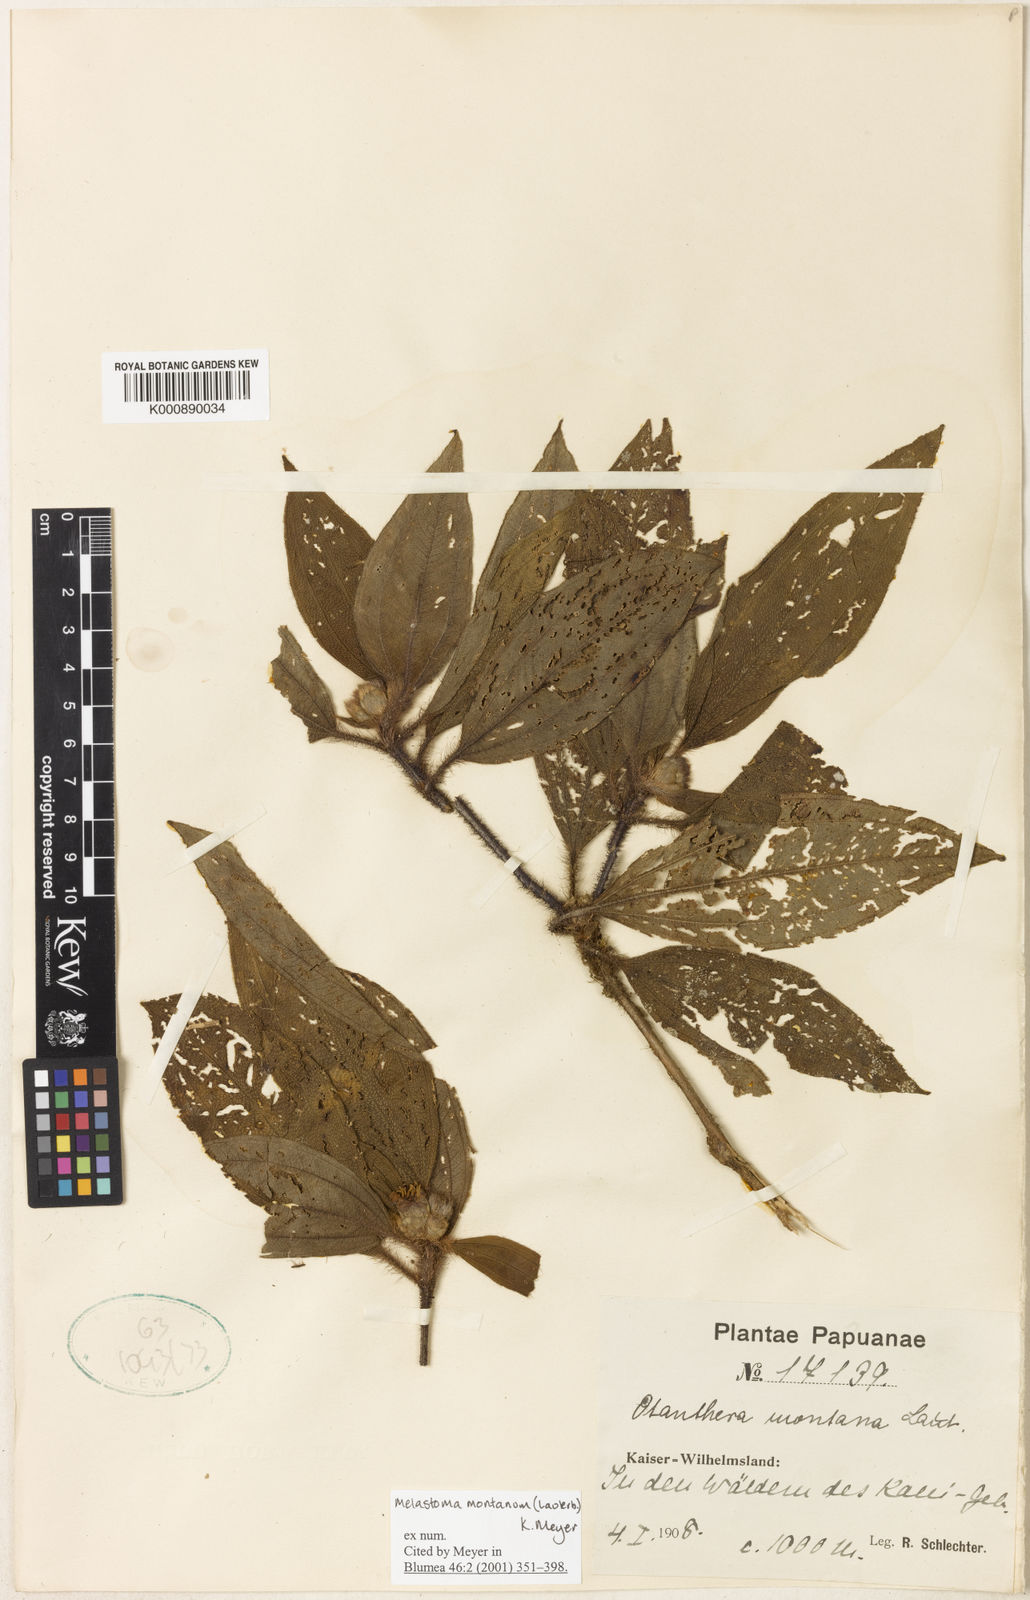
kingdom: Plantae
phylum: Tracheophyta
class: Magnoliopsida
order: Myrtales
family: Melastomataceae
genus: Melastoma
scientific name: Melastoma malabathricum
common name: Indian-rhododendron
